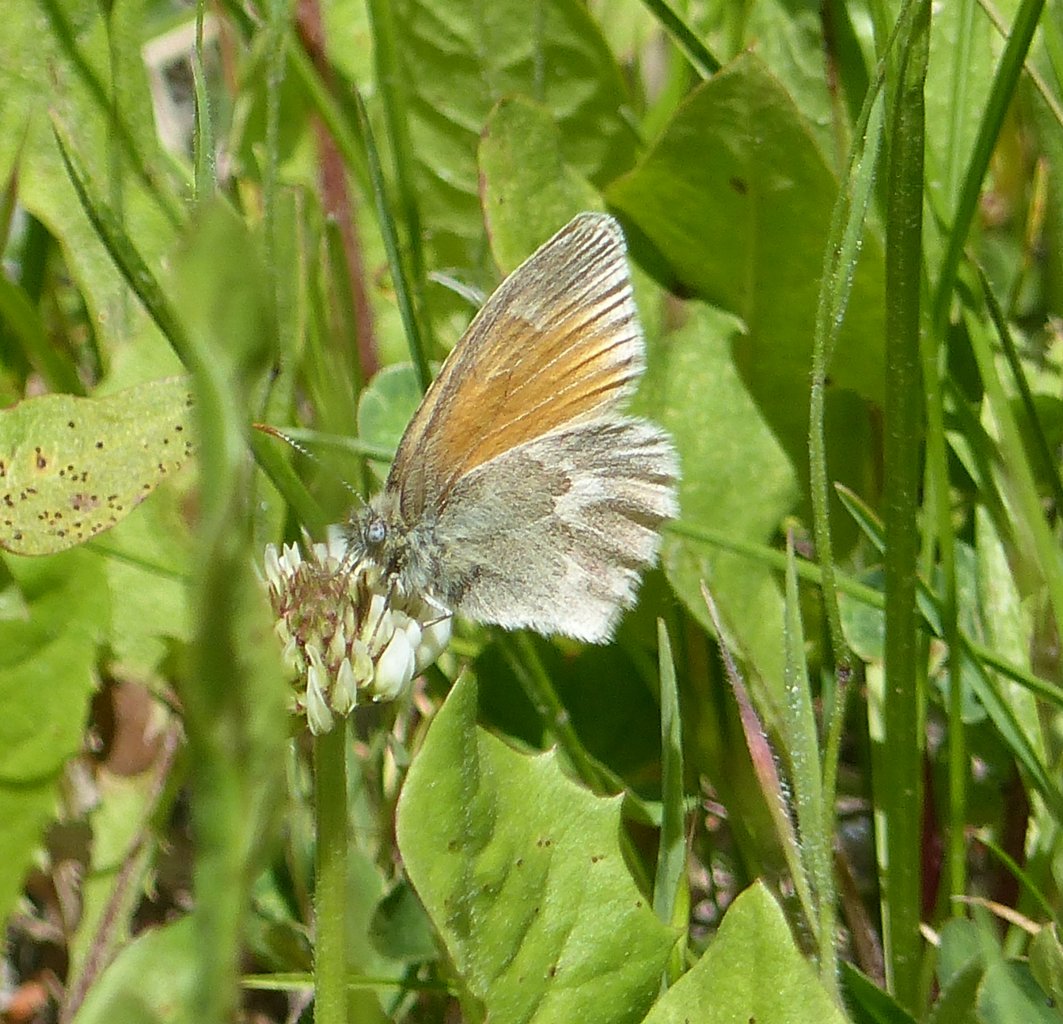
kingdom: Animalia
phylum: Arthropoda
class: Insecta
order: Lepidoptera
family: Nymphalidae
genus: Coenonympha
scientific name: Coenonympha tullia
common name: Large Heath
